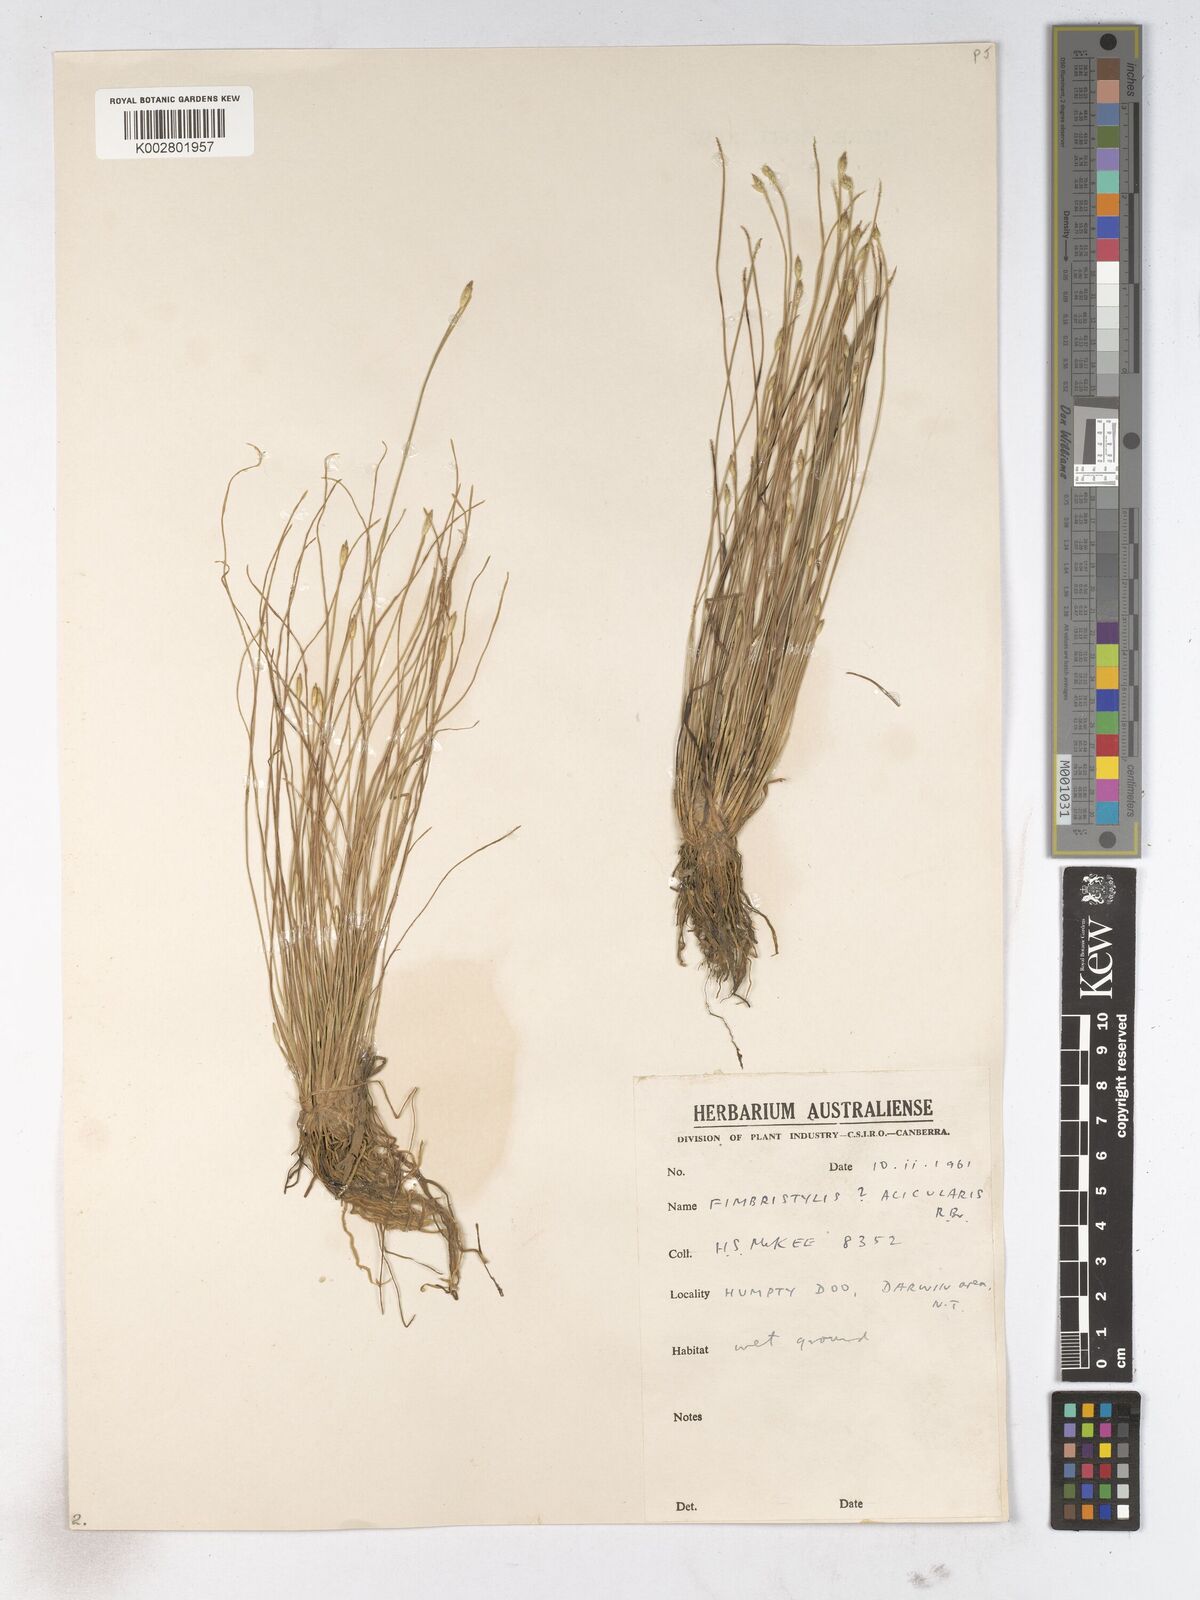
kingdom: Plantae
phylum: Tracheophyta
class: Liliopsida
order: Poales
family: Cyperaceae
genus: Fimbristylis
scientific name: Fimbristylis acicularis
